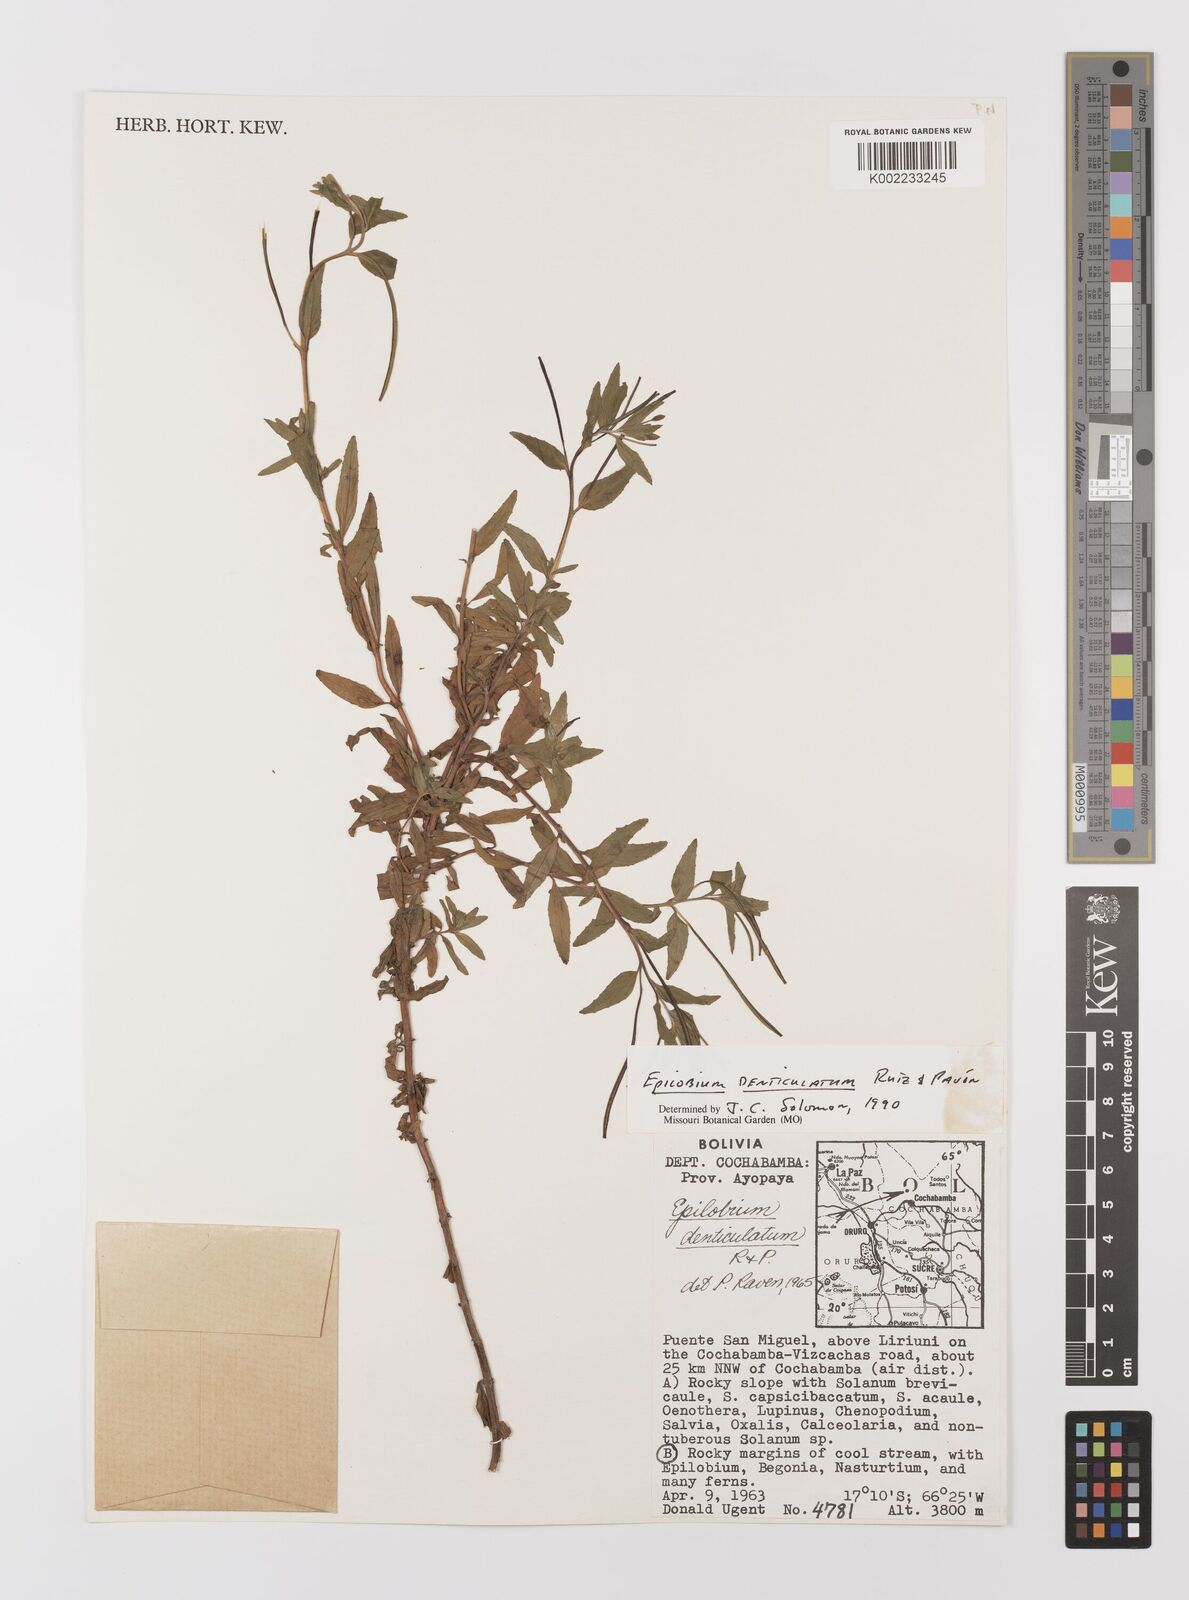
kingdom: Plantae
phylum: Tracheophyta
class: Magnoliopsida
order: Myrtales
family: Onagraceae
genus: Epilobium
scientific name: Epilobium denticulatum
